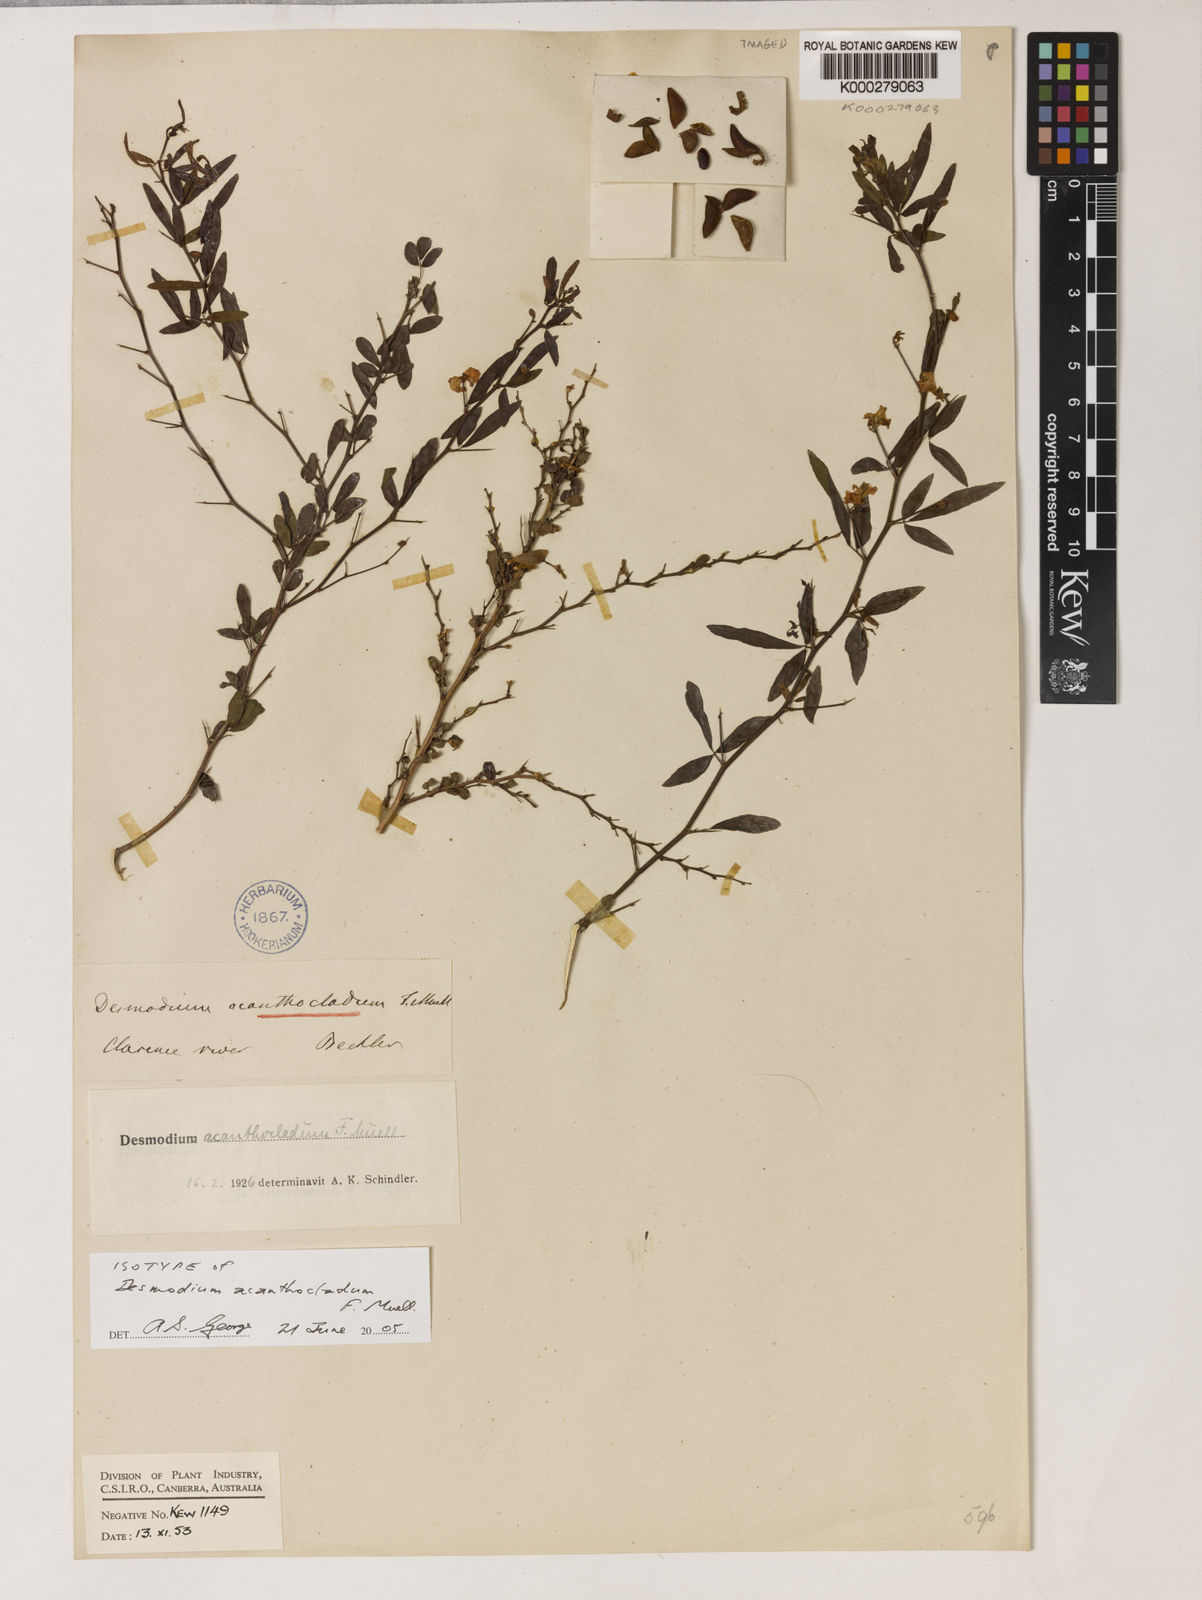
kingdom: Plantae
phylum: Tracheophyta
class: Magnoliopsida
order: Fabales
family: Fabaceae
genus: Pedleya
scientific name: Pedleya acanthoclada
